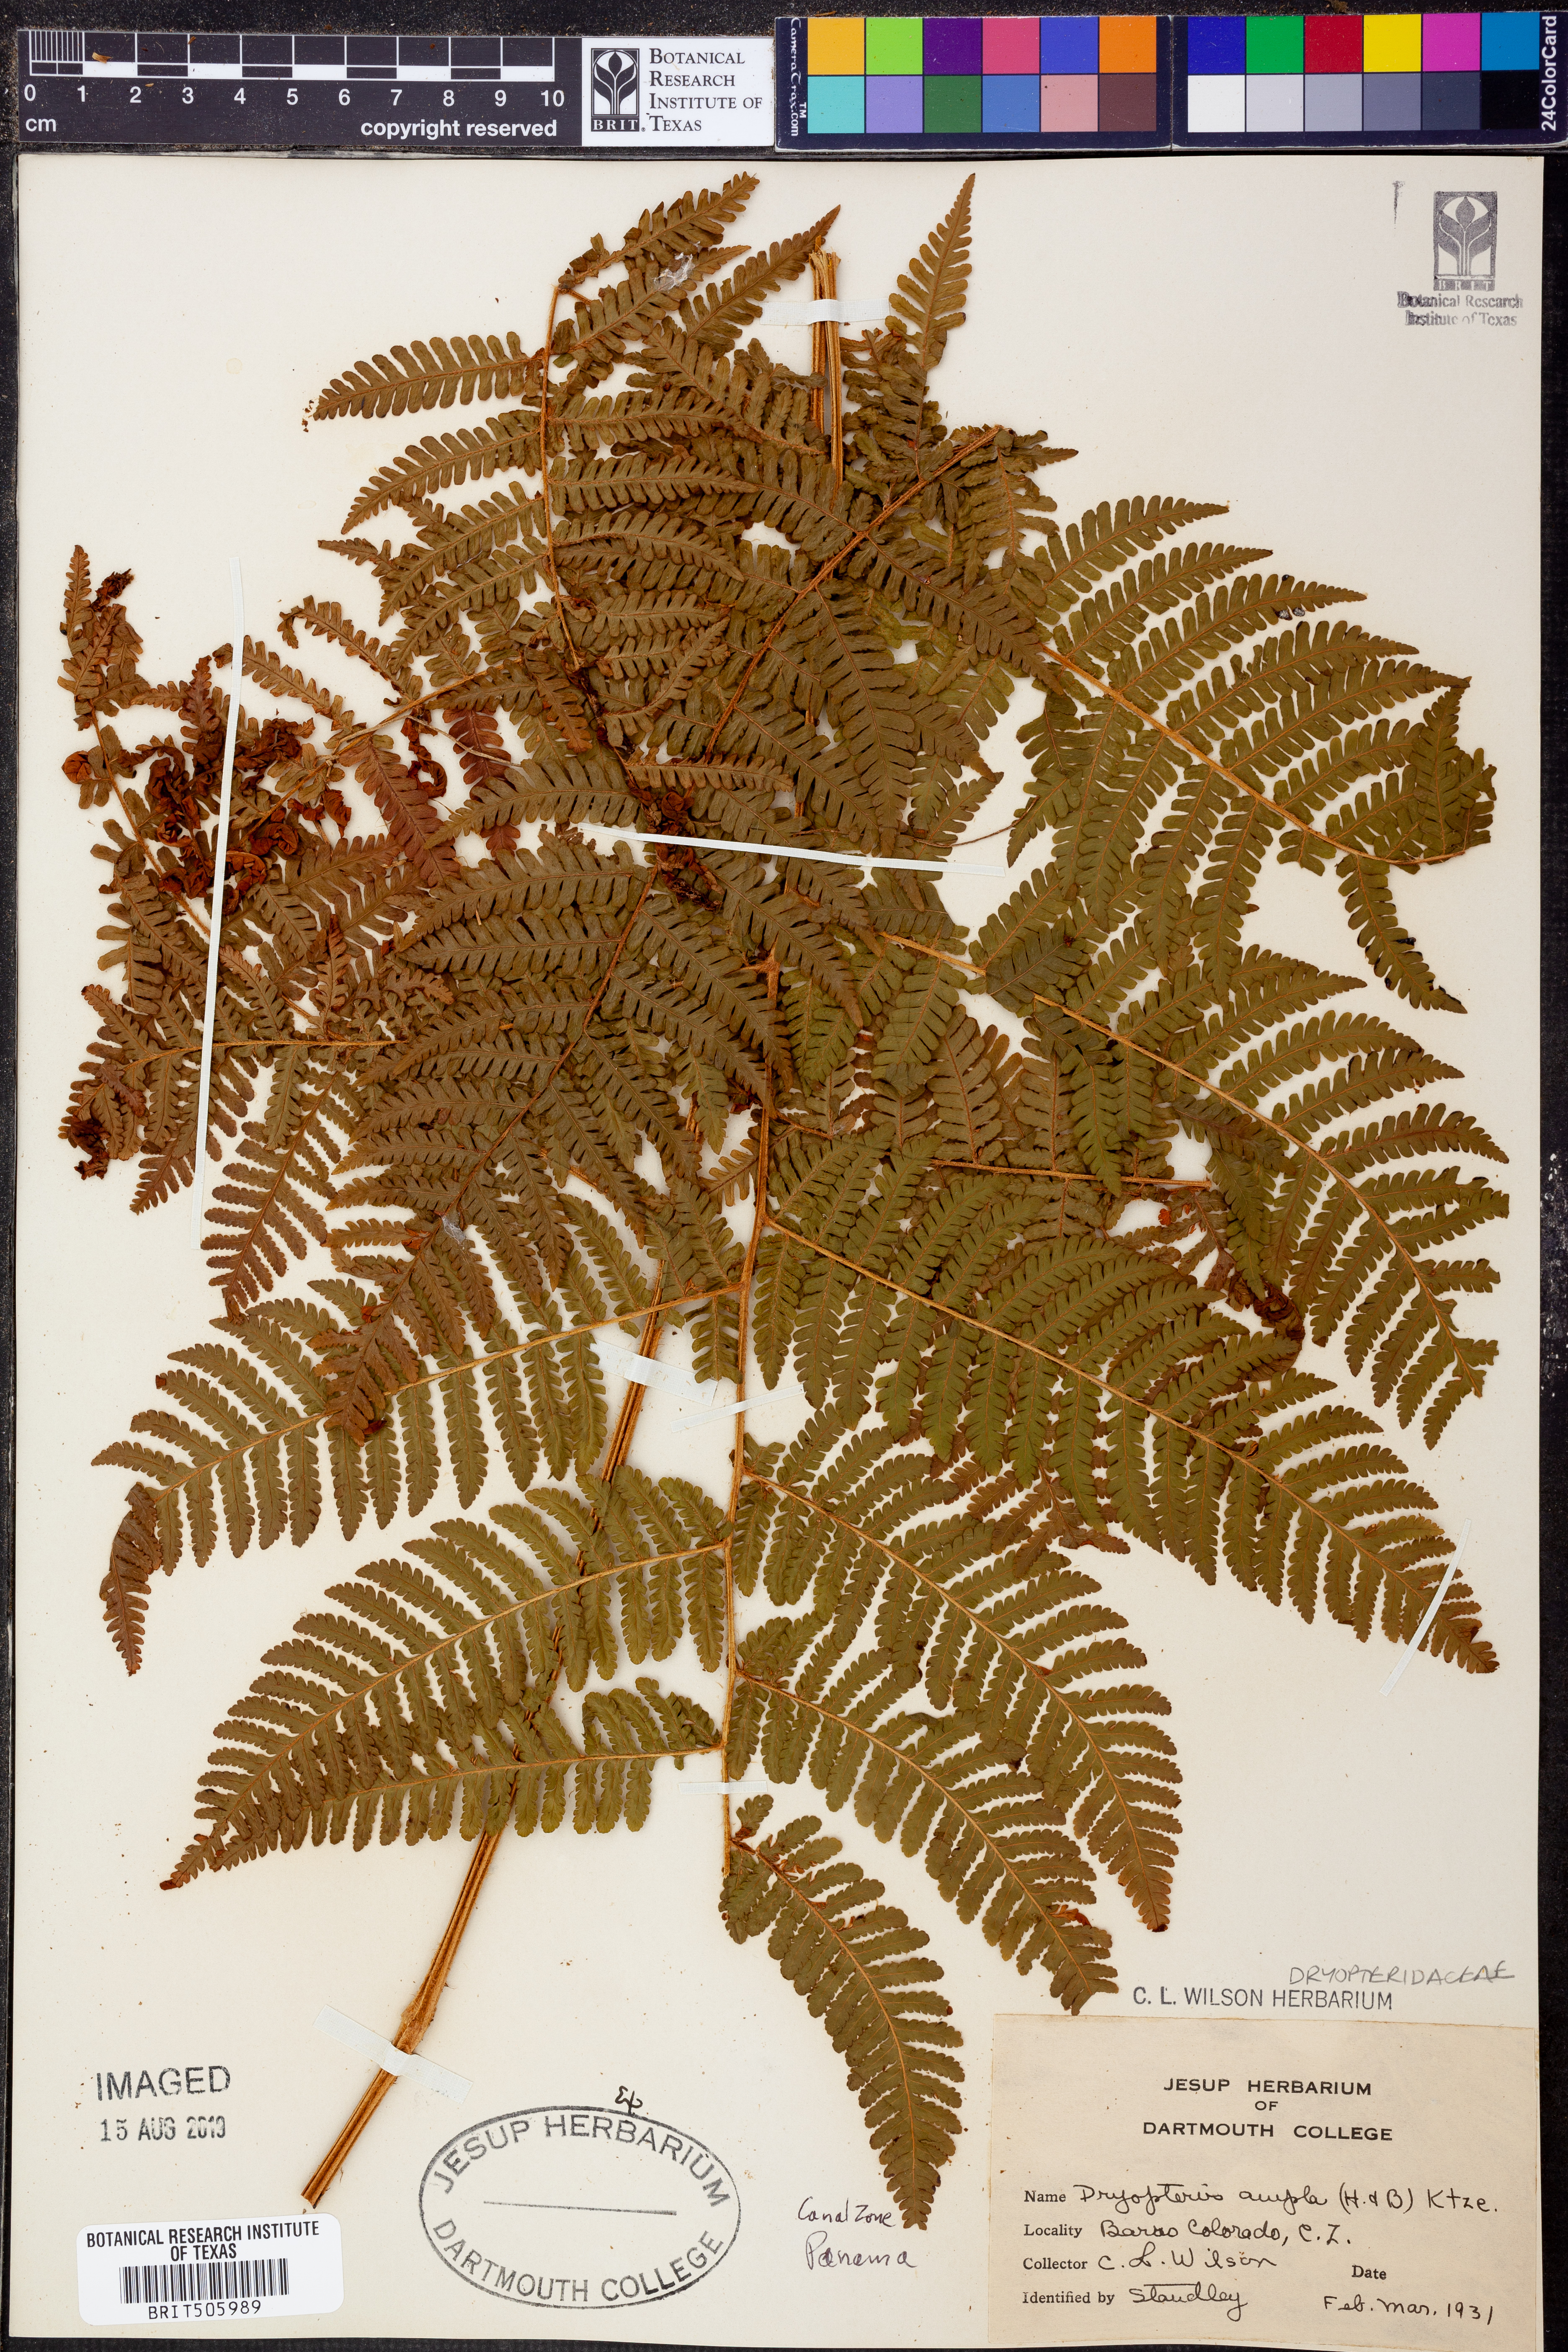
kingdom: Plantae
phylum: Tracheophyta
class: Polypodiopsida
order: Polypodiales
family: Dryopteridaceae
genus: Ctenitis
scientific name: Ctenitis sloanei
